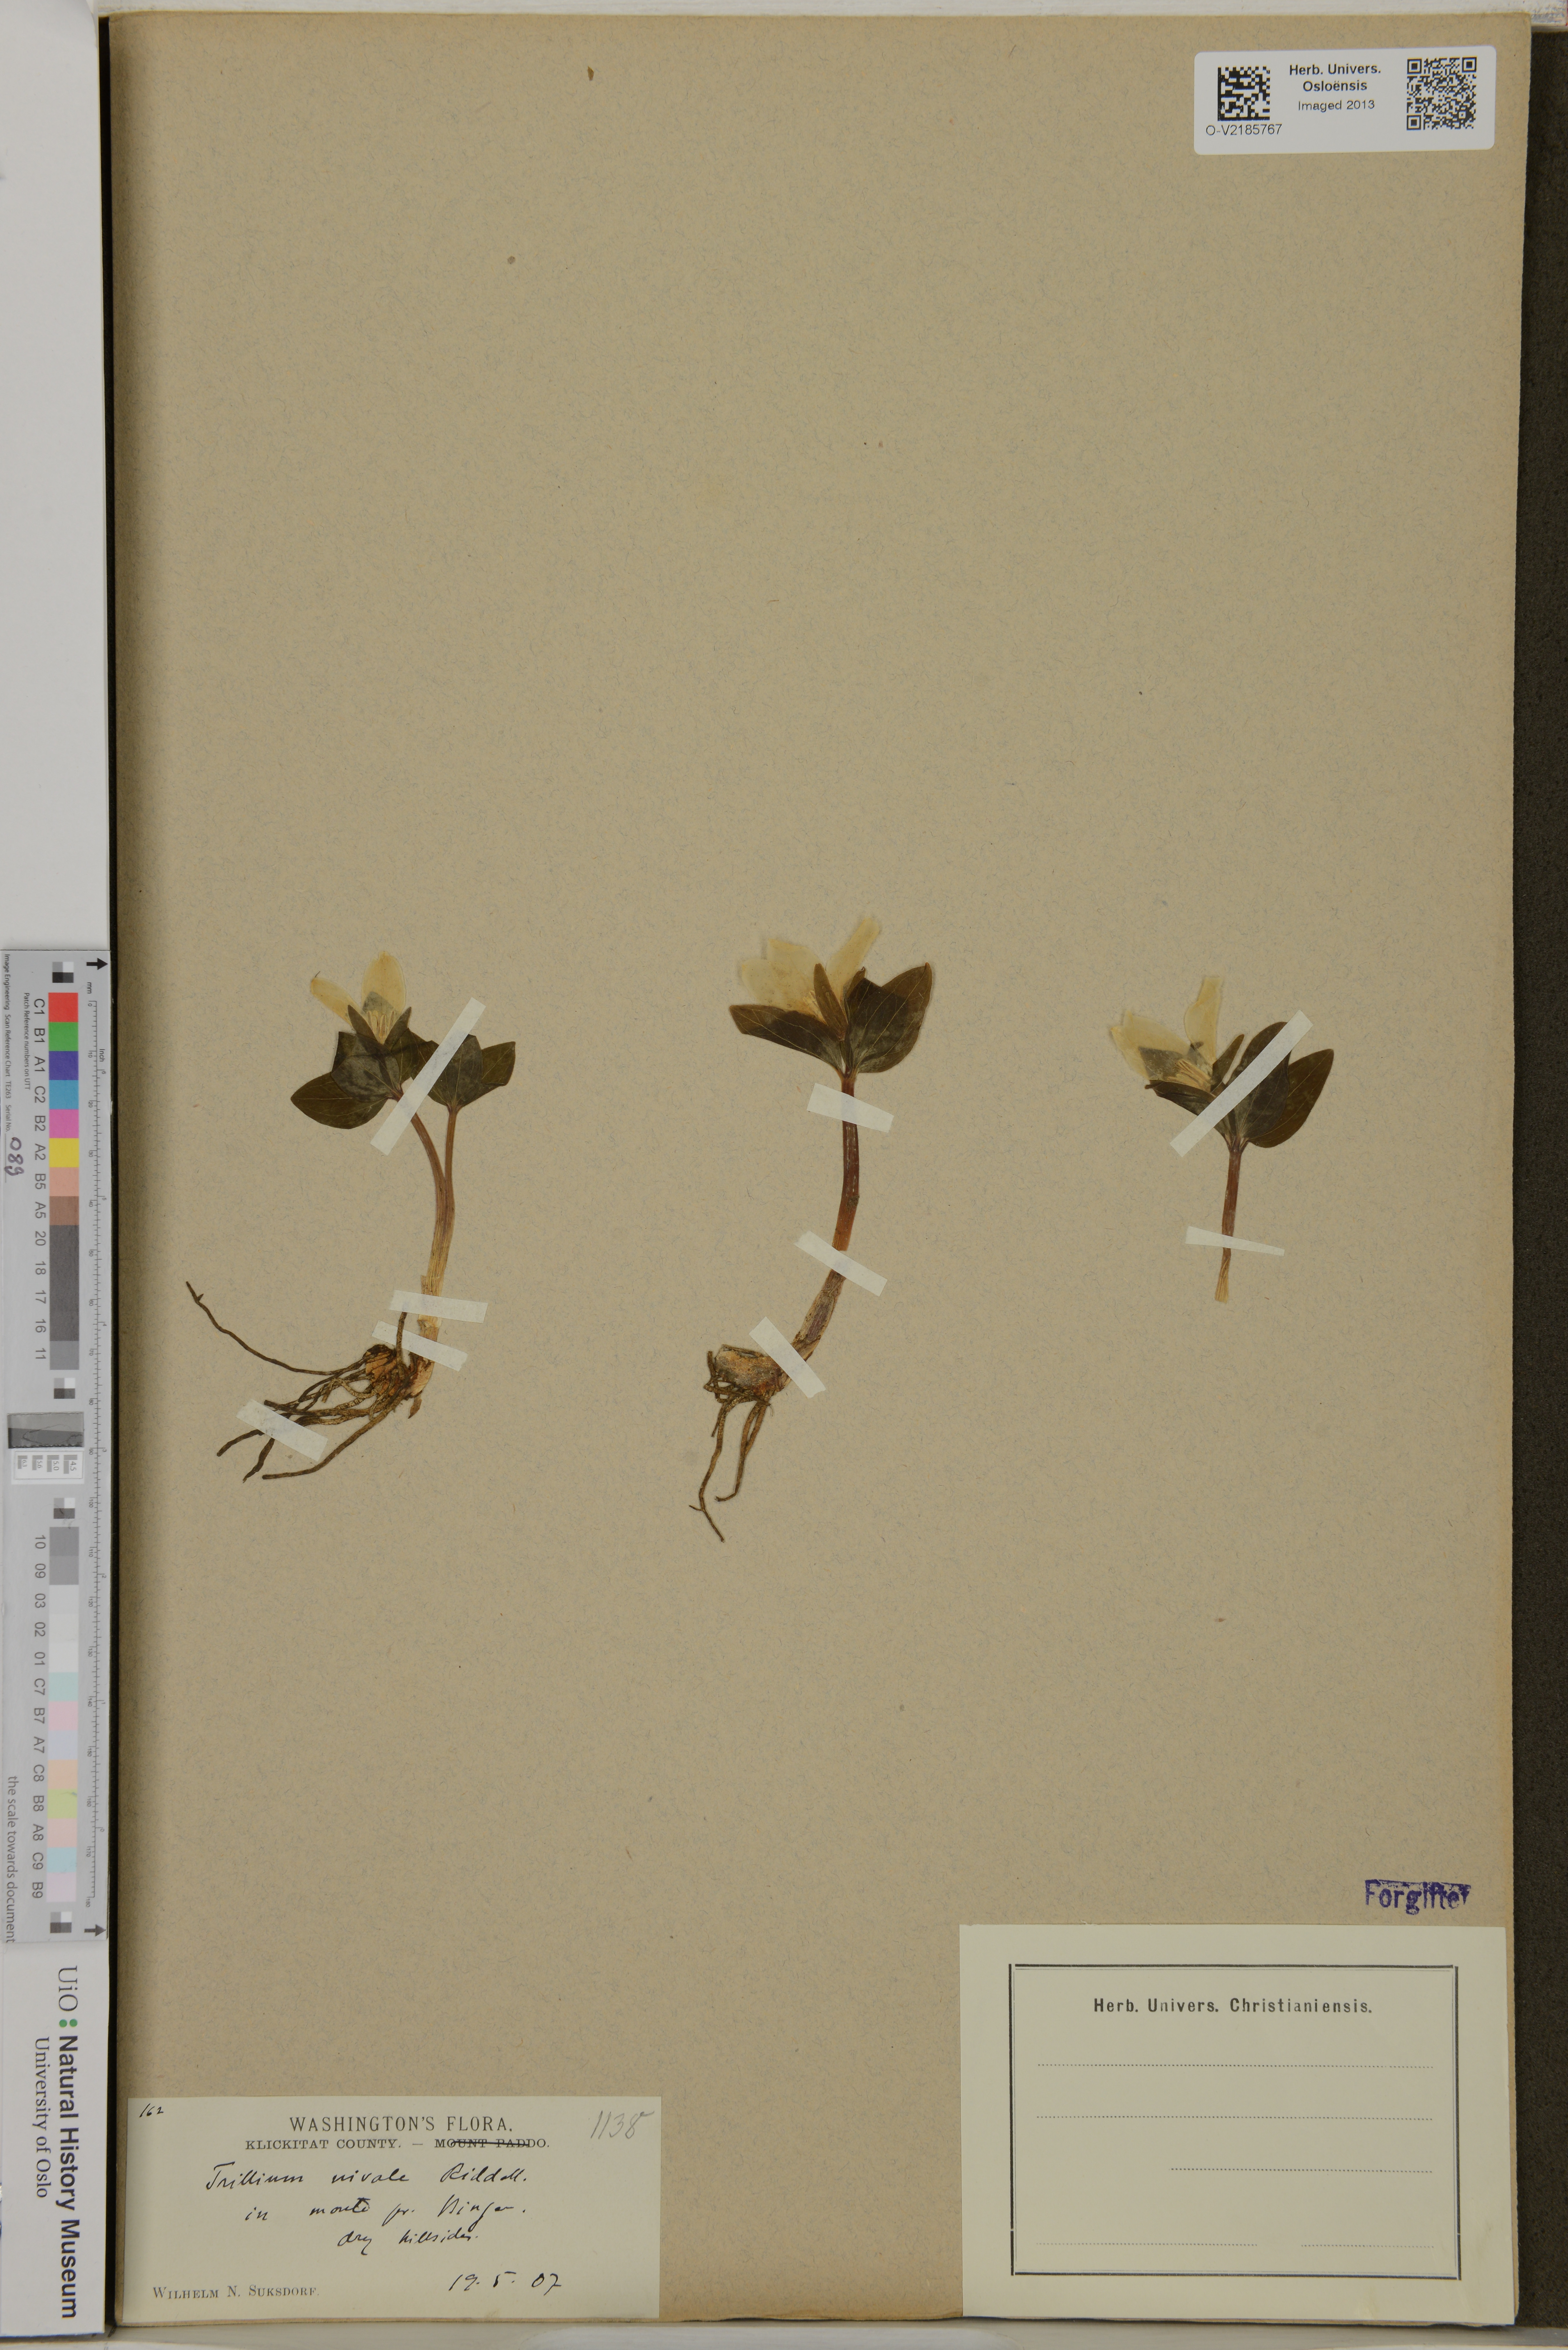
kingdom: Plantae
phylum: Tracheophyta
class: Liliopsida
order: Liliales
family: Melanthiaceae
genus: Trillium
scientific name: Trillium nivale
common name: Dwarf white trillium
